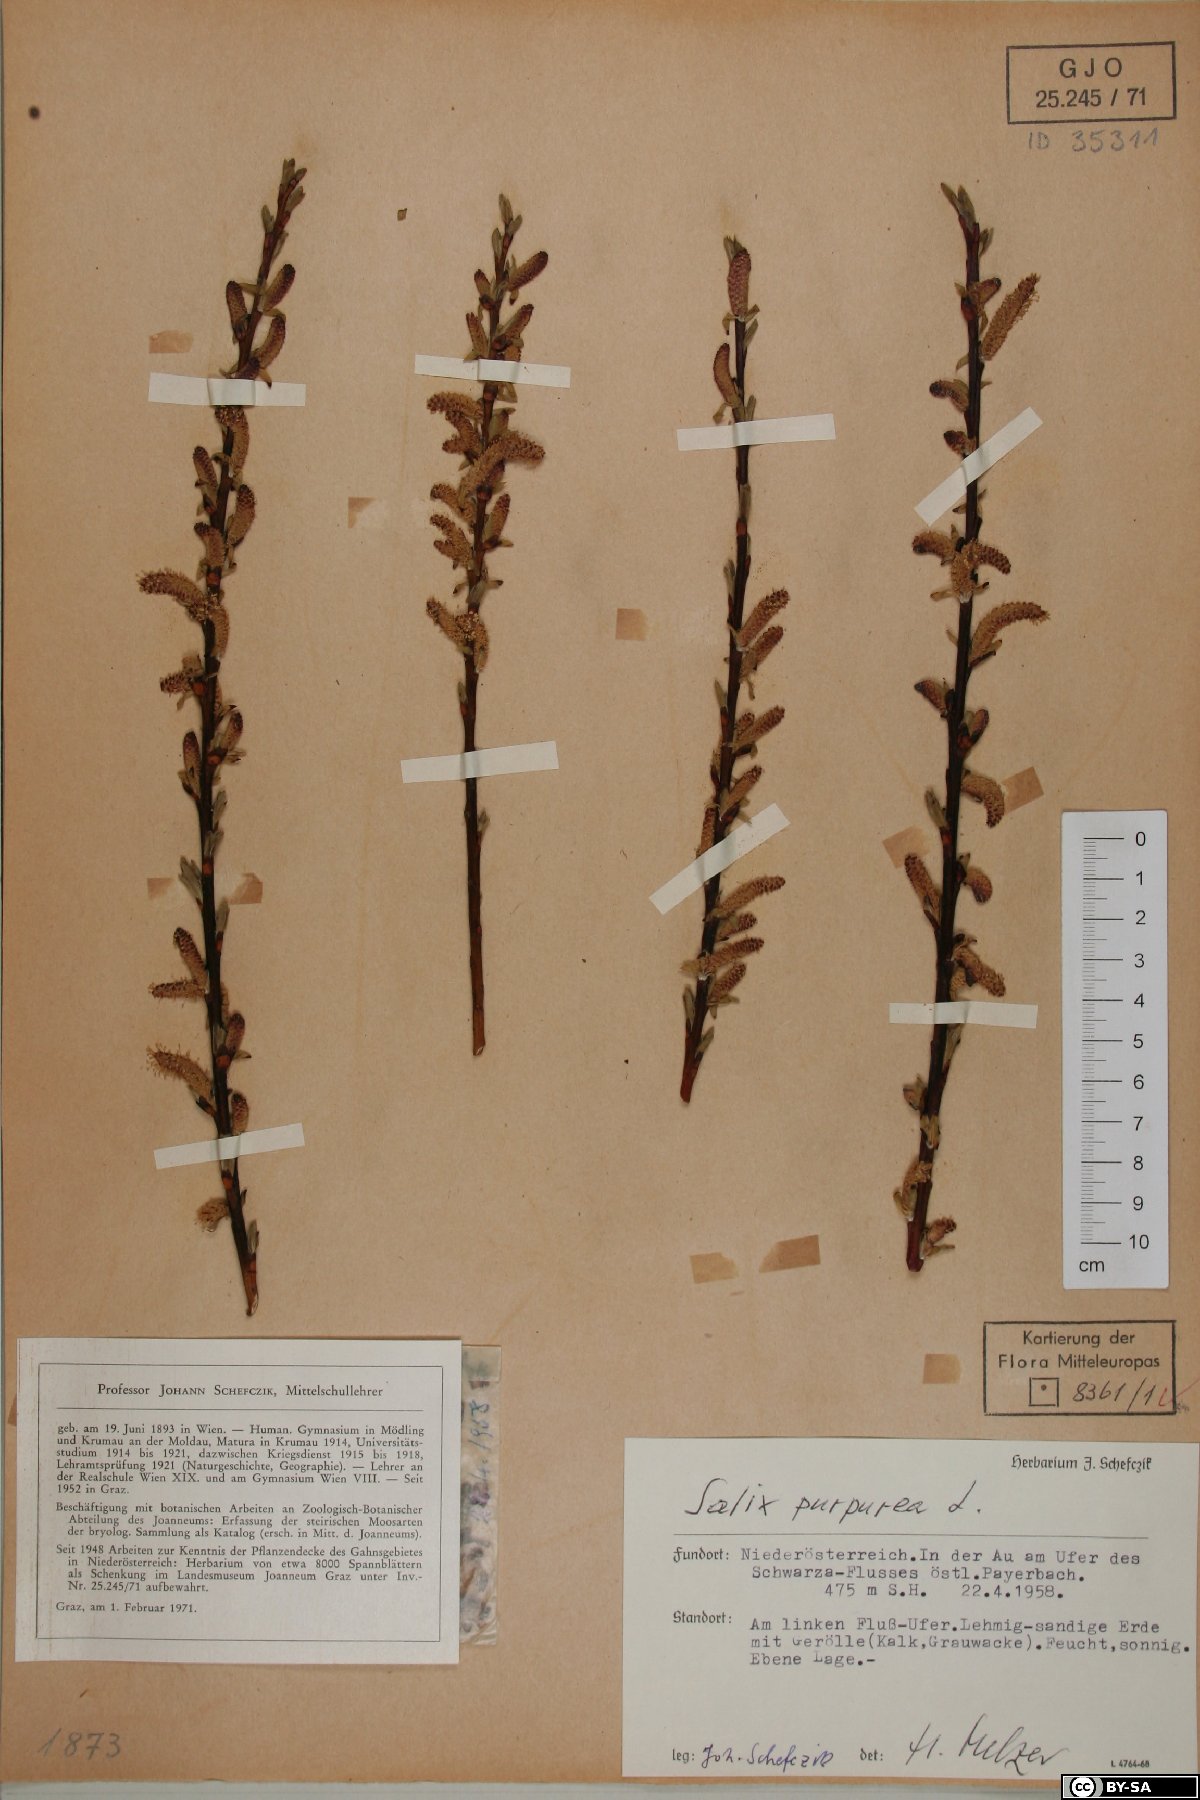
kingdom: Plantae
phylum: Tracheophyta
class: Magnoliopsida
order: Malpighiales
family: Salicaceae
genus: Salix
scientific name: Salix purpurea
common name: Purple willow
